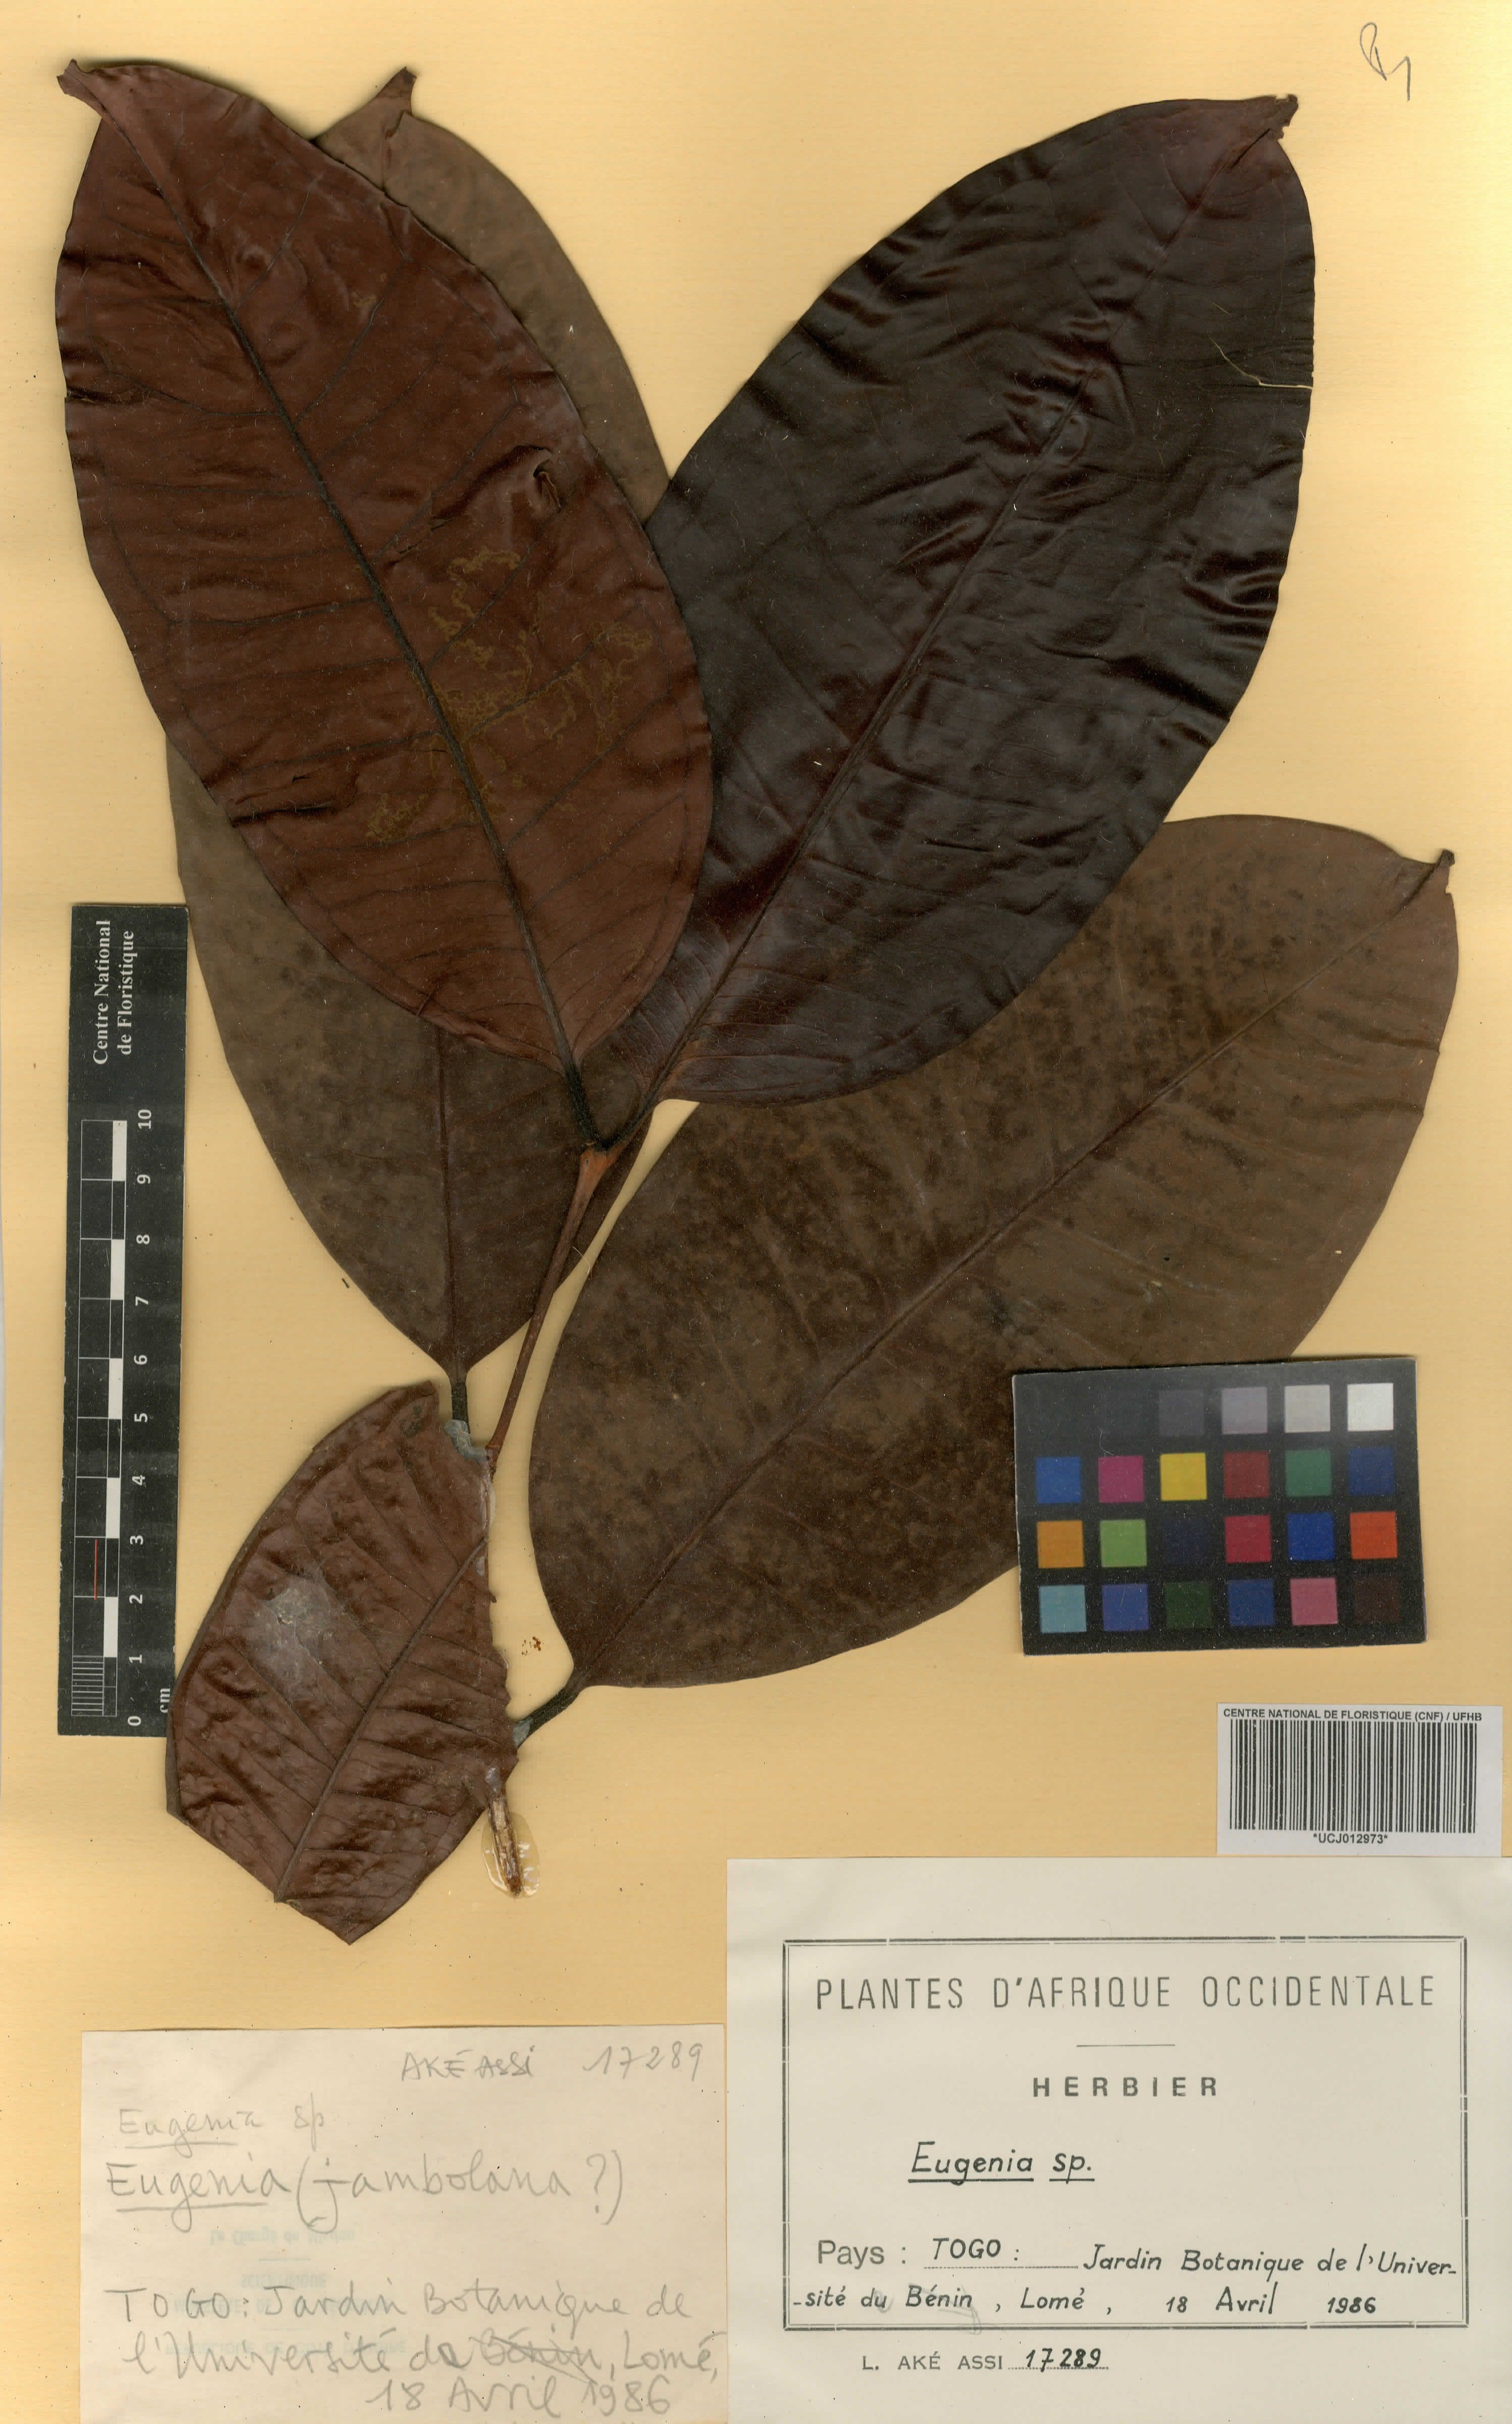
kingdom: Plantae
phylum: Tracheophyta
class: Magnoliopsida
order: Myrtales
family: Myrtaceae
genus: Eugenia
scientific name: Eugenia
